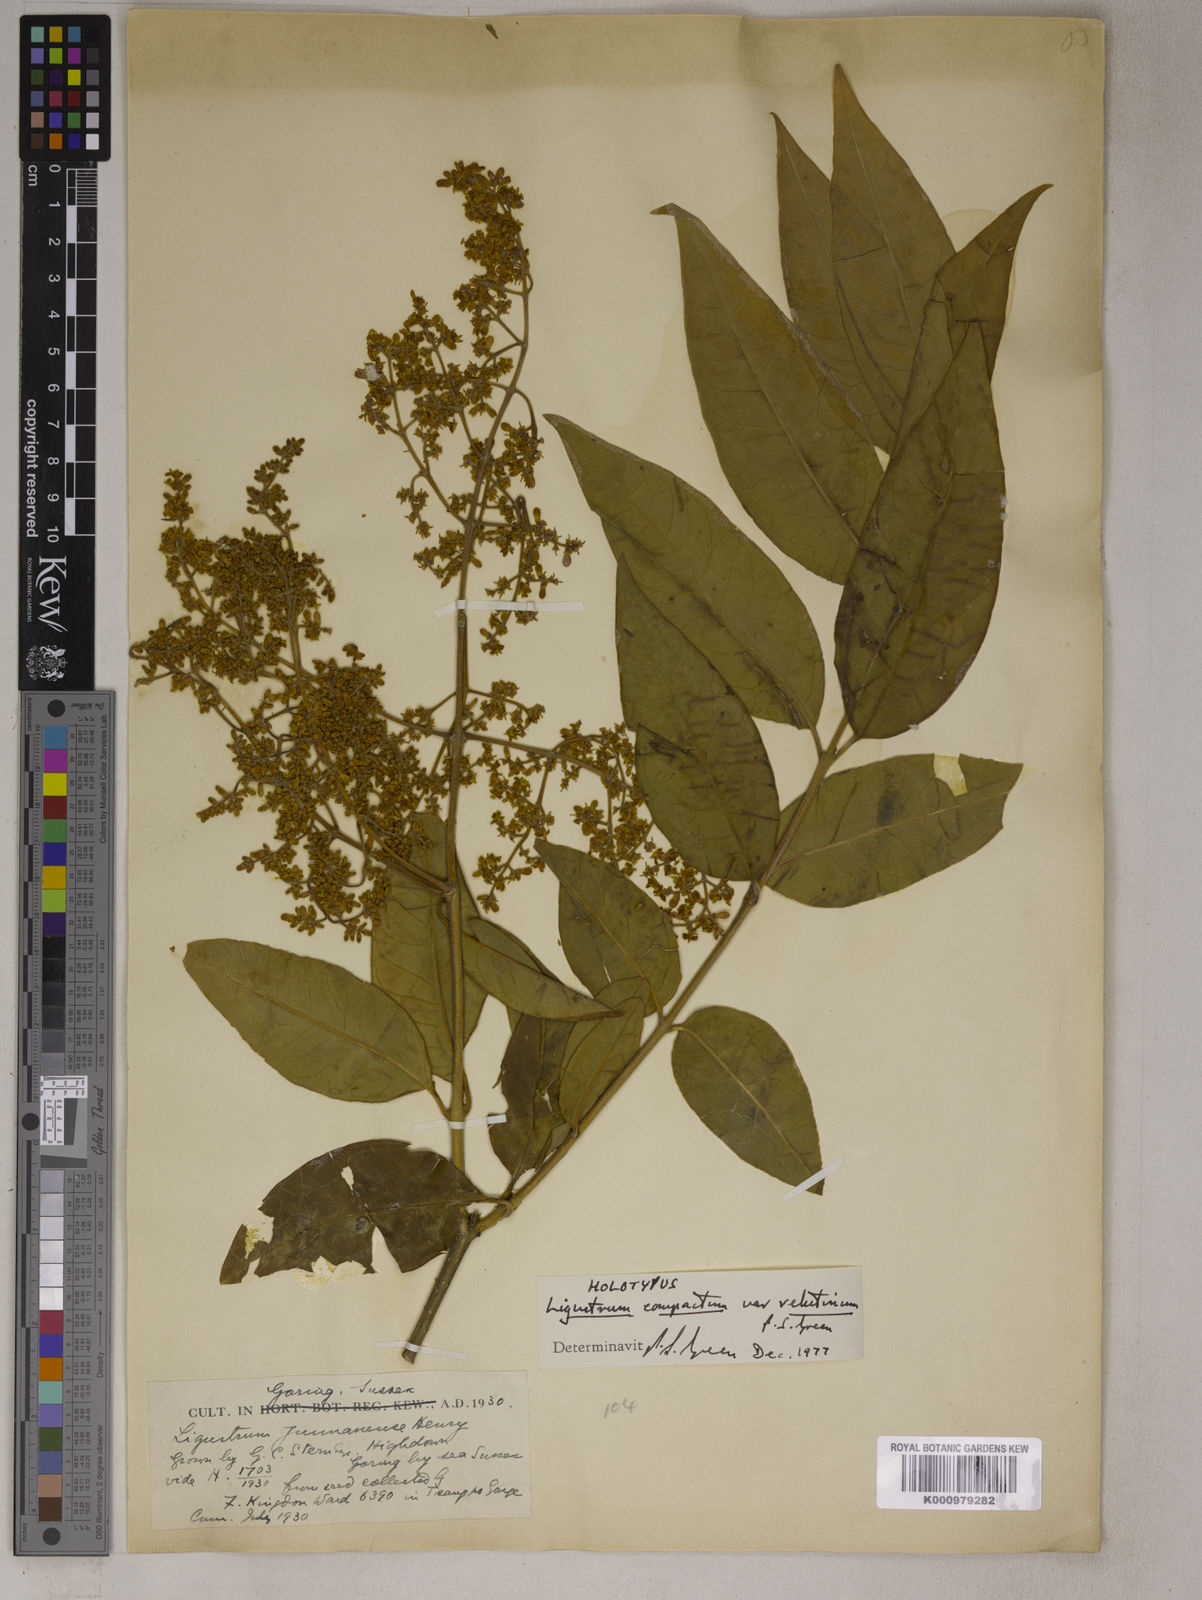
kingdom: Plantae
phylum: Tracheophyta
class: Magnoliopsida
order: Lamiales
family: Oleaceae
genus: Ligustrum
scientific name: Ligustrum compactum
